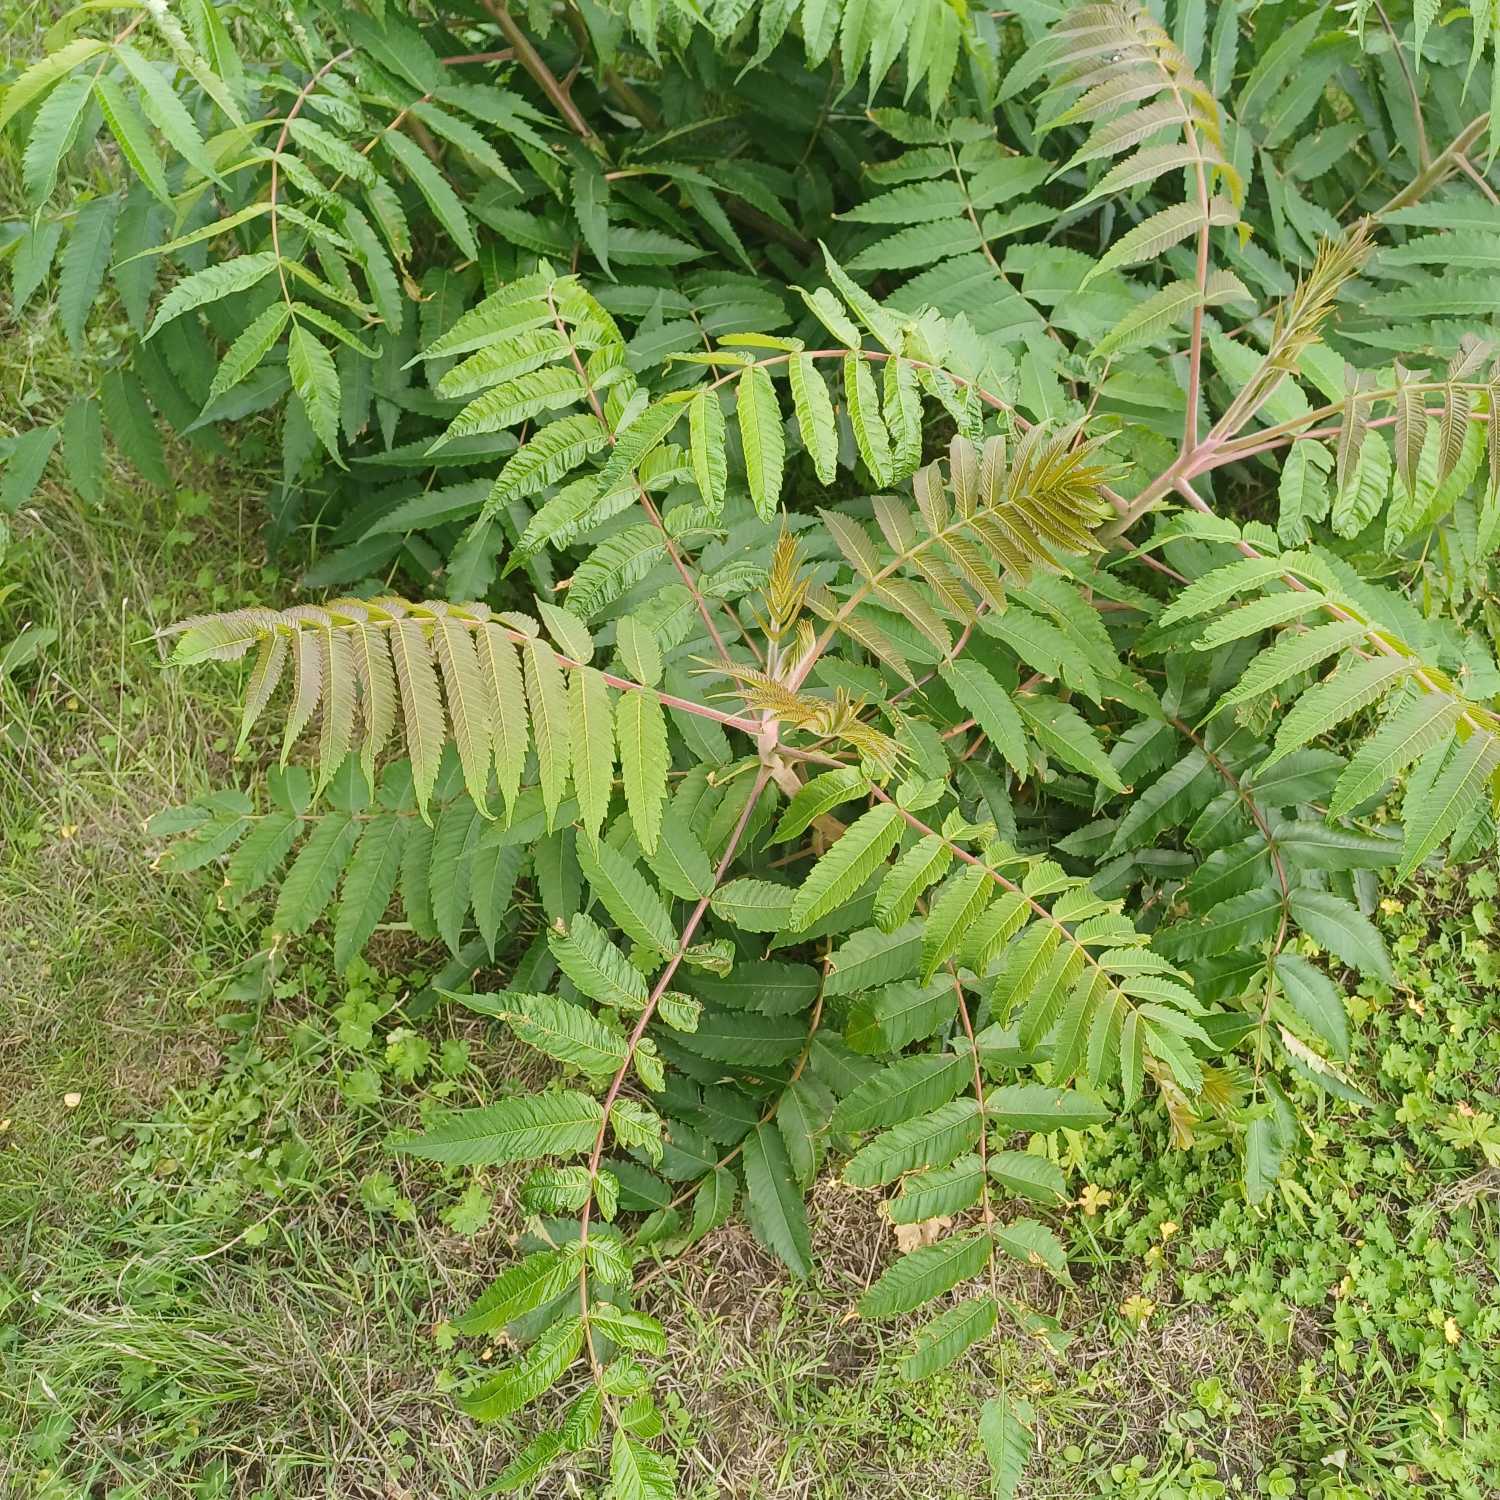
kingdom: Plantae
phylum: Tracheophyta
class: Magnoliopsida
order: Sapindales
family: Anacardiaceae
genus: Rhus
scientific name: Rhus typhina
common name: Hjortetaktræ
